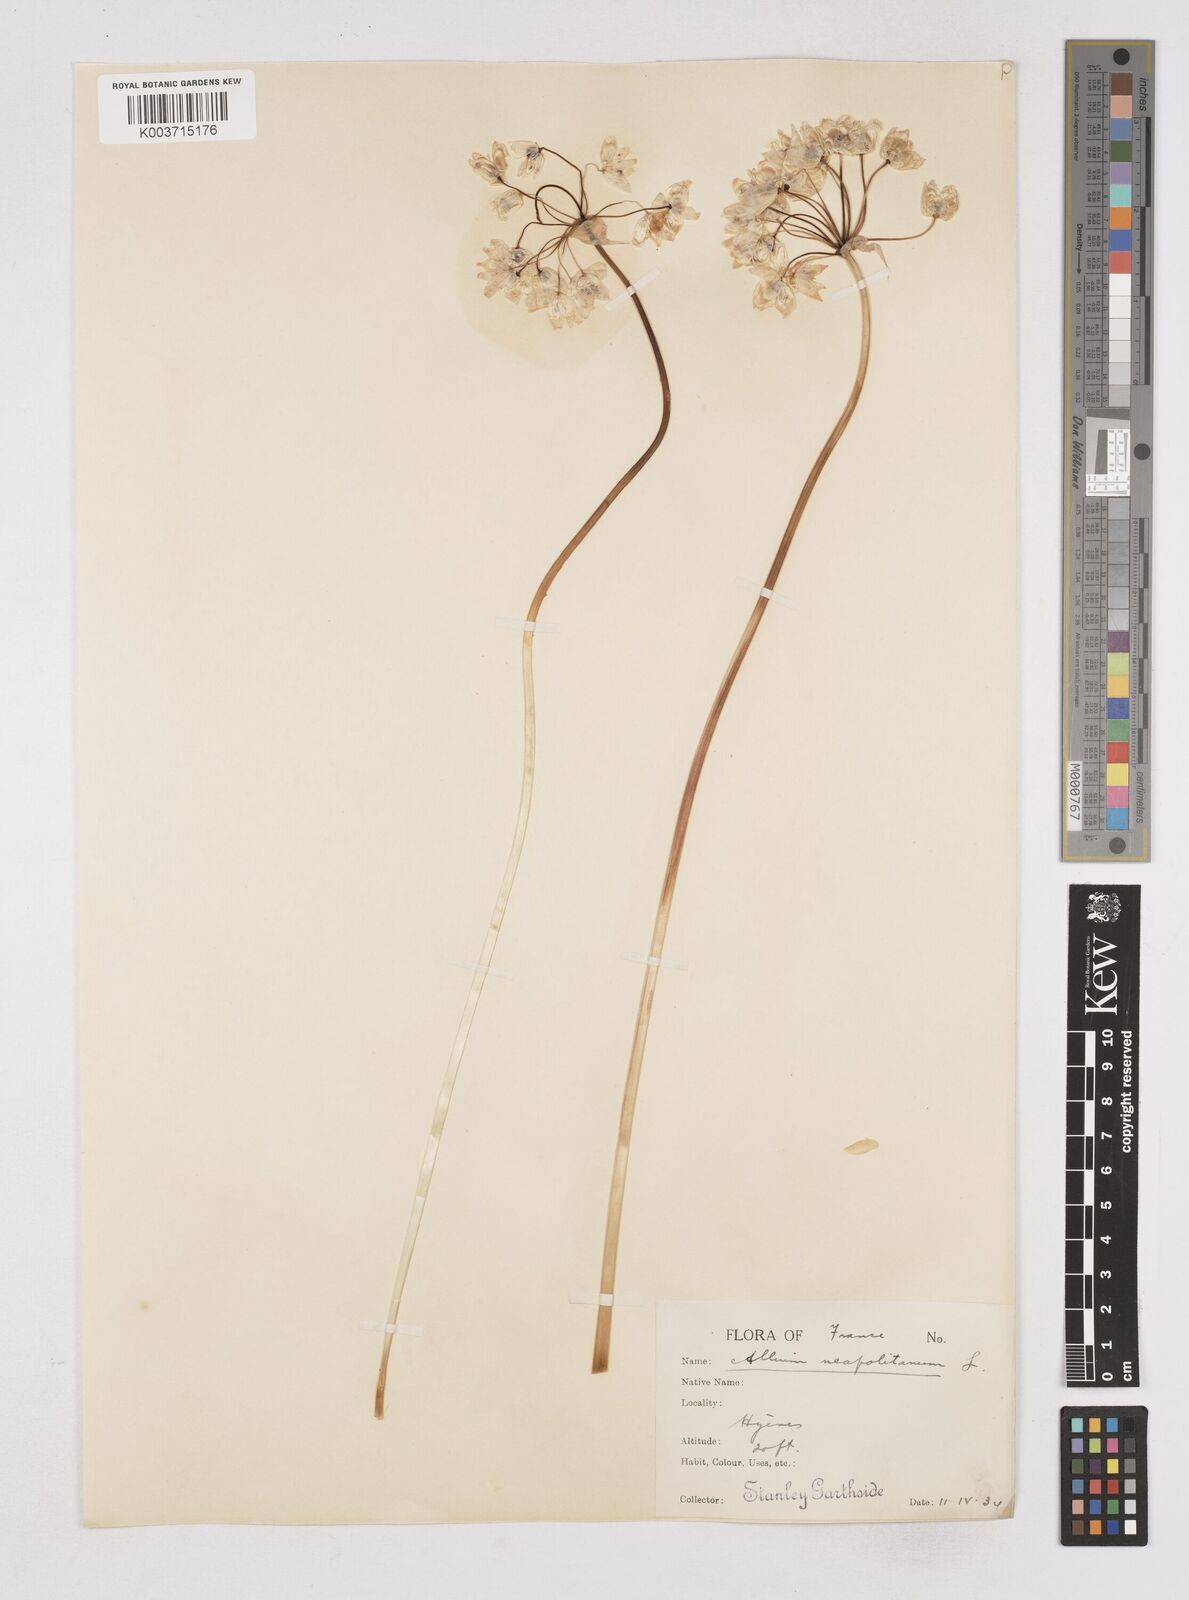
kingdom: Plantae
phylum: Tracheophyta
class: Liliopsida
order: Asparagales
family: Amaryllidaceae
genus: Allium
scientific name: Allium neapolitanum
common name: Neapolitan garlic
